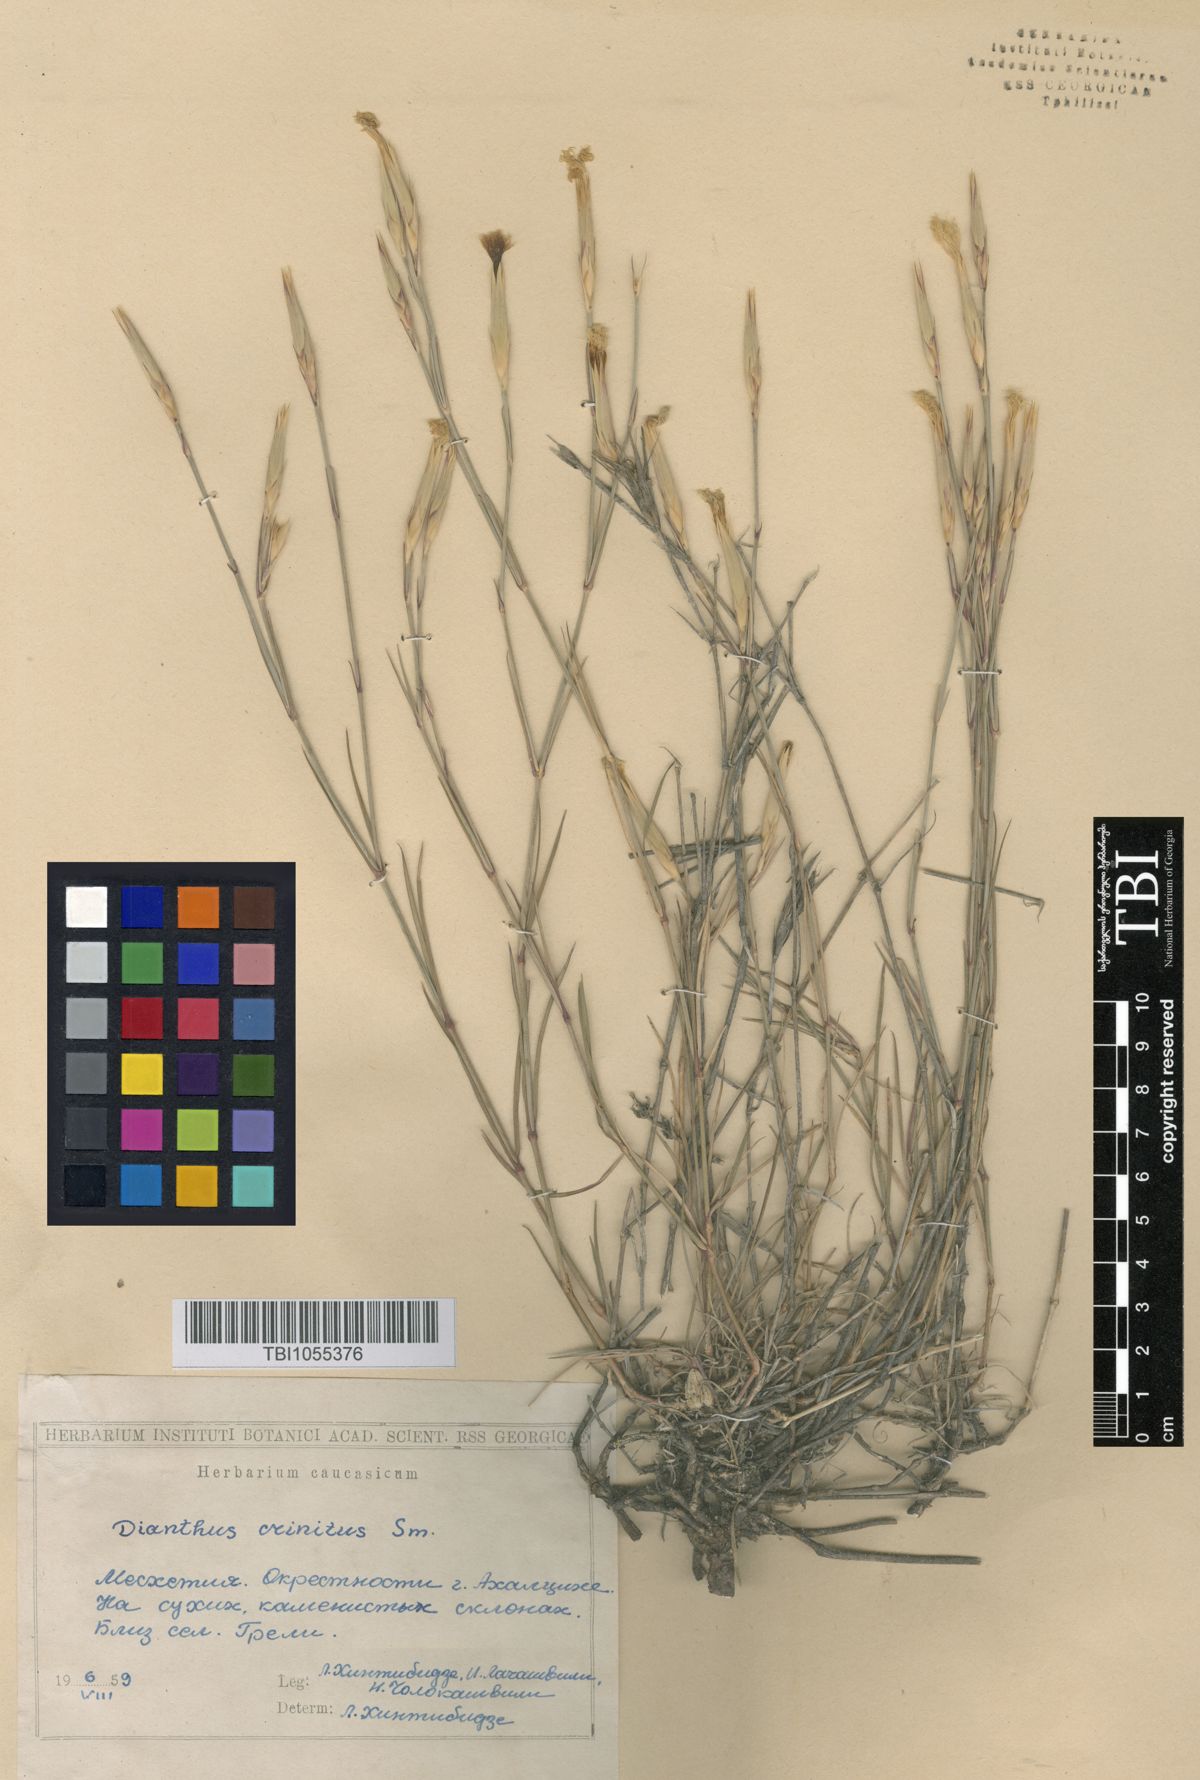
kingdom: Plantae
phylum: Tracheophyta
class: Magnoliopsida
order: Caryophyllales
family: Caryophyllaceae
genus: Dianthus
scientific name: Dianthus crinitus
